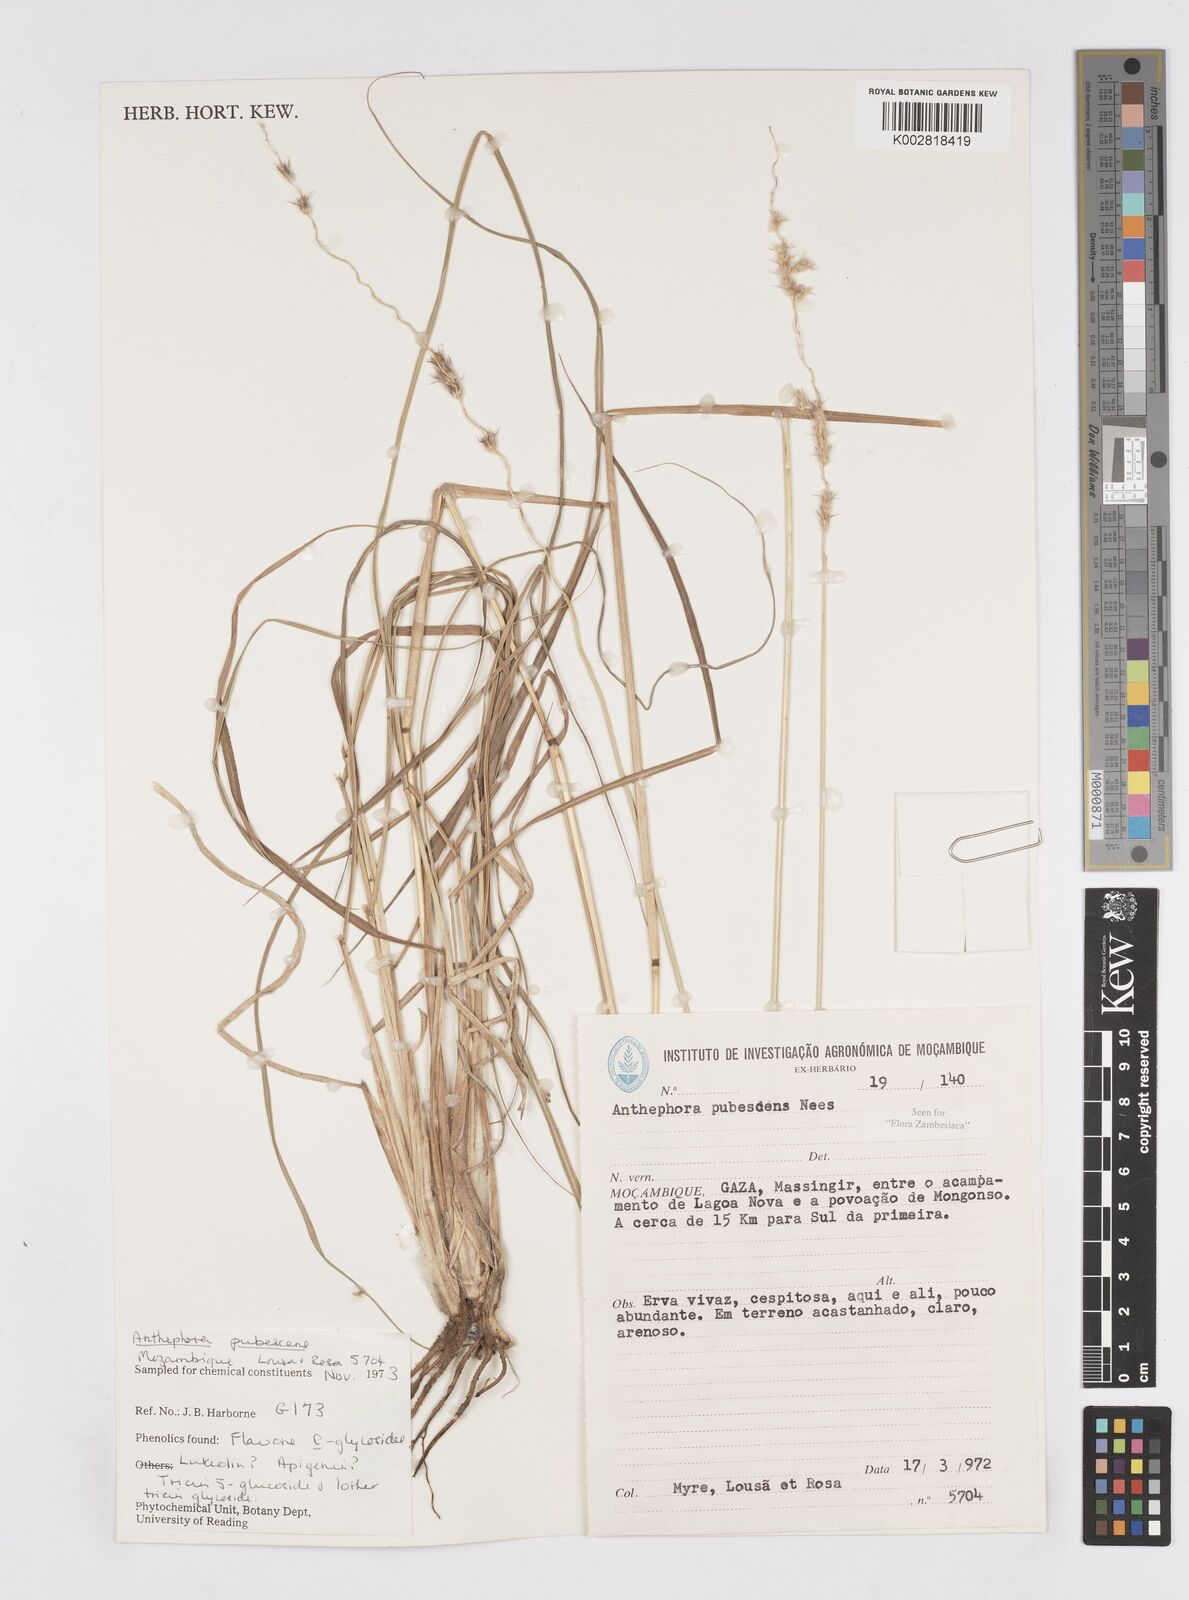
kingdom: Plantae
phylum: Tracheophyta
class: Liliopsida
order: Poales
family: Poaceae
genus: Anthephora
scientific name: Anthephora pubescens
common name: Wool grass
